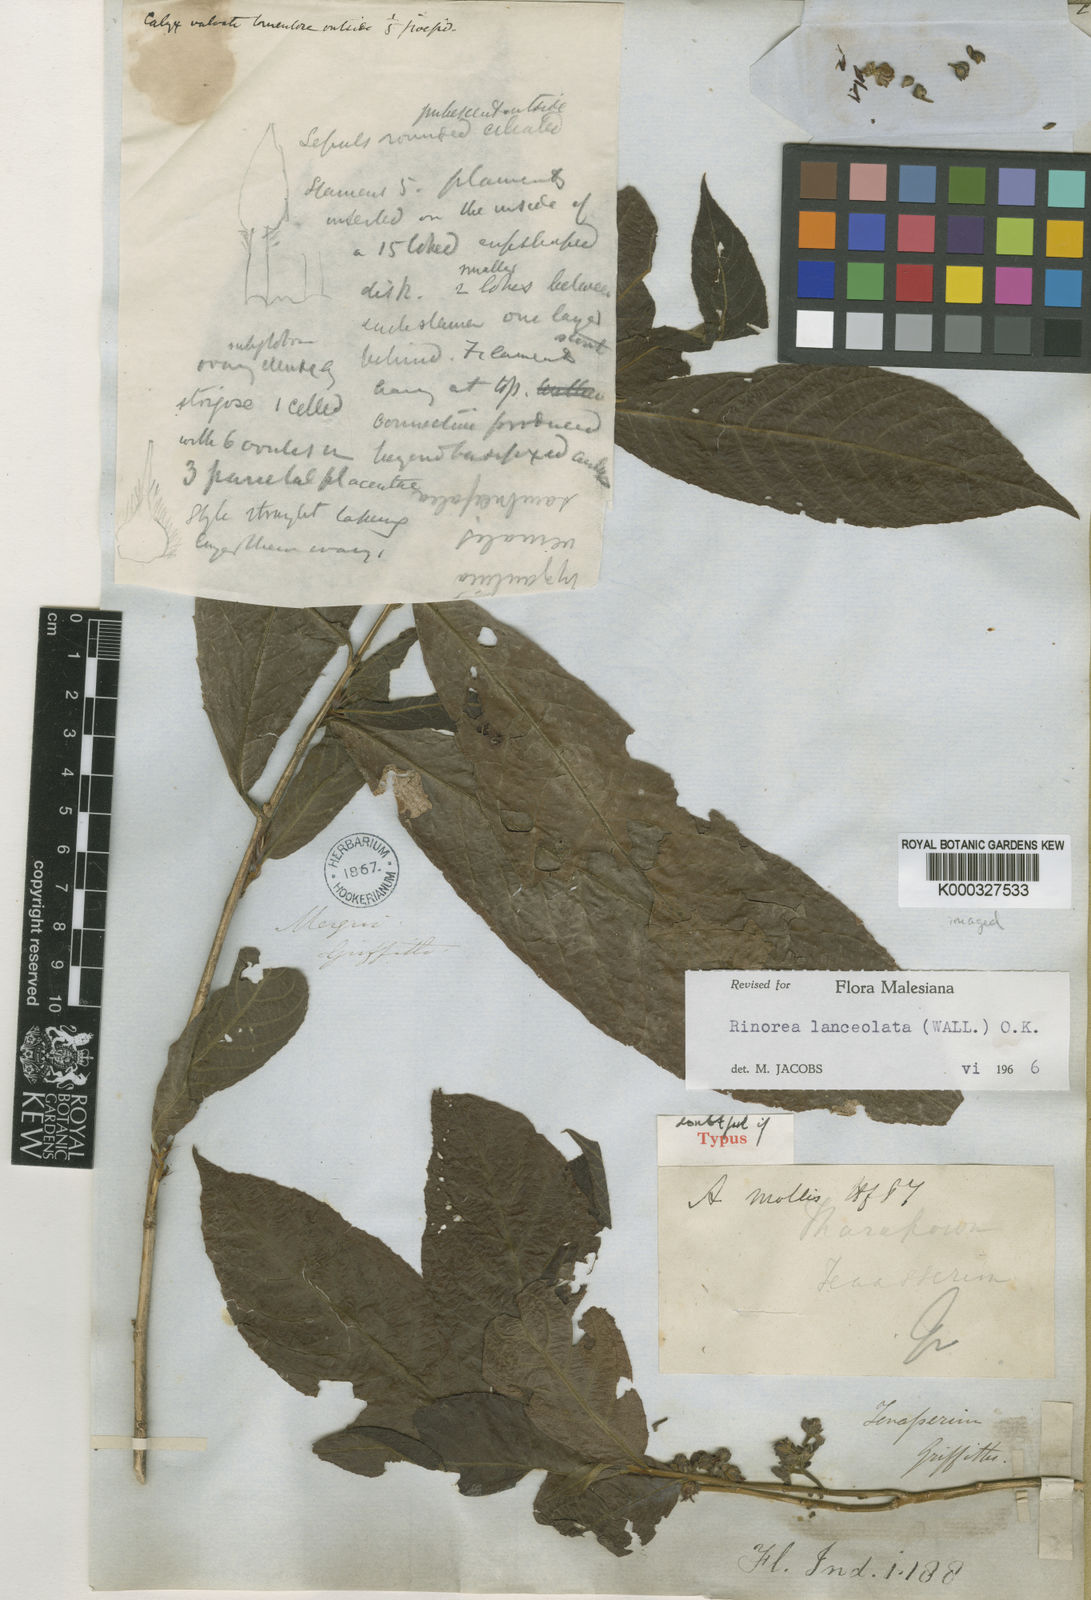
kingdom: Plantae
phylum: Tracheophyta
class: Magnoliopsida
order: Malpighiales
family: Violaceae
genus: Rinorea
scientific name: Rinorea lanceolata
